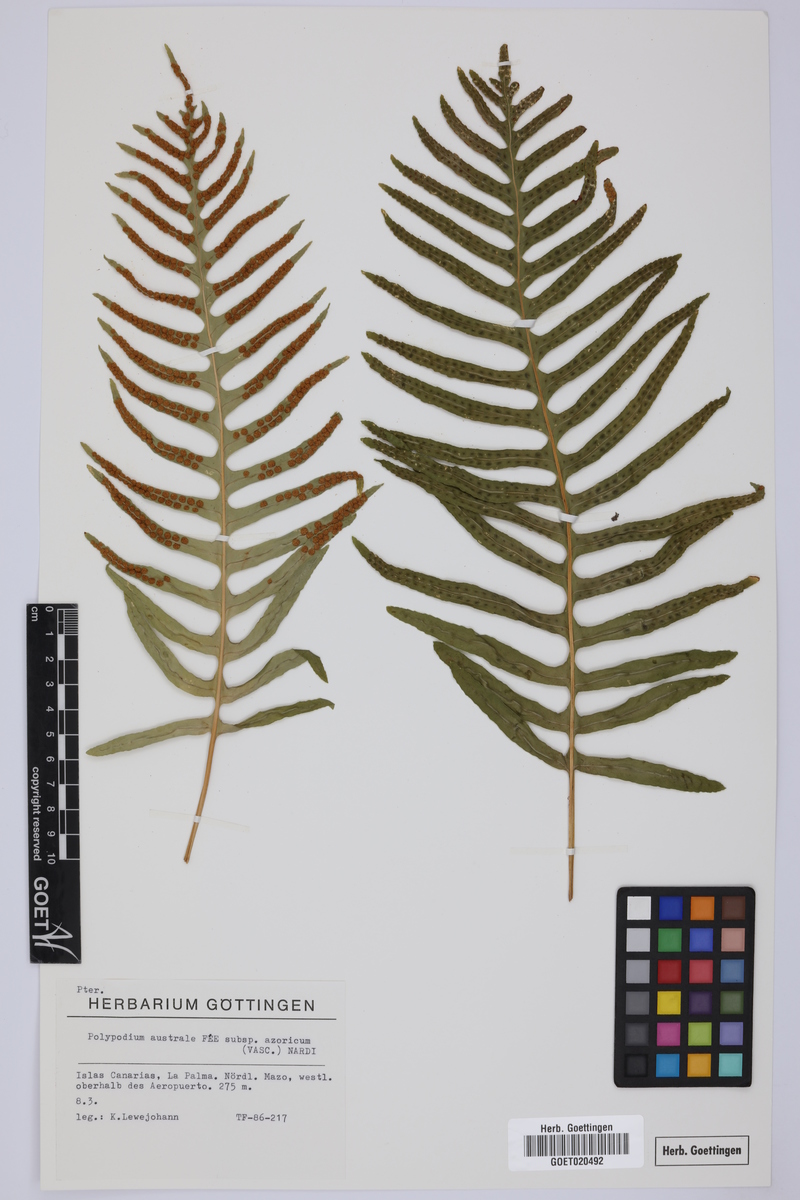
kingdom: Plantae
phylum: Tracheophyta
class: Polypodiopsida
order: Polypodiales
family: Polypodiaceae
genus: Polypodium
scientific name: Polypodium macaronesicum
